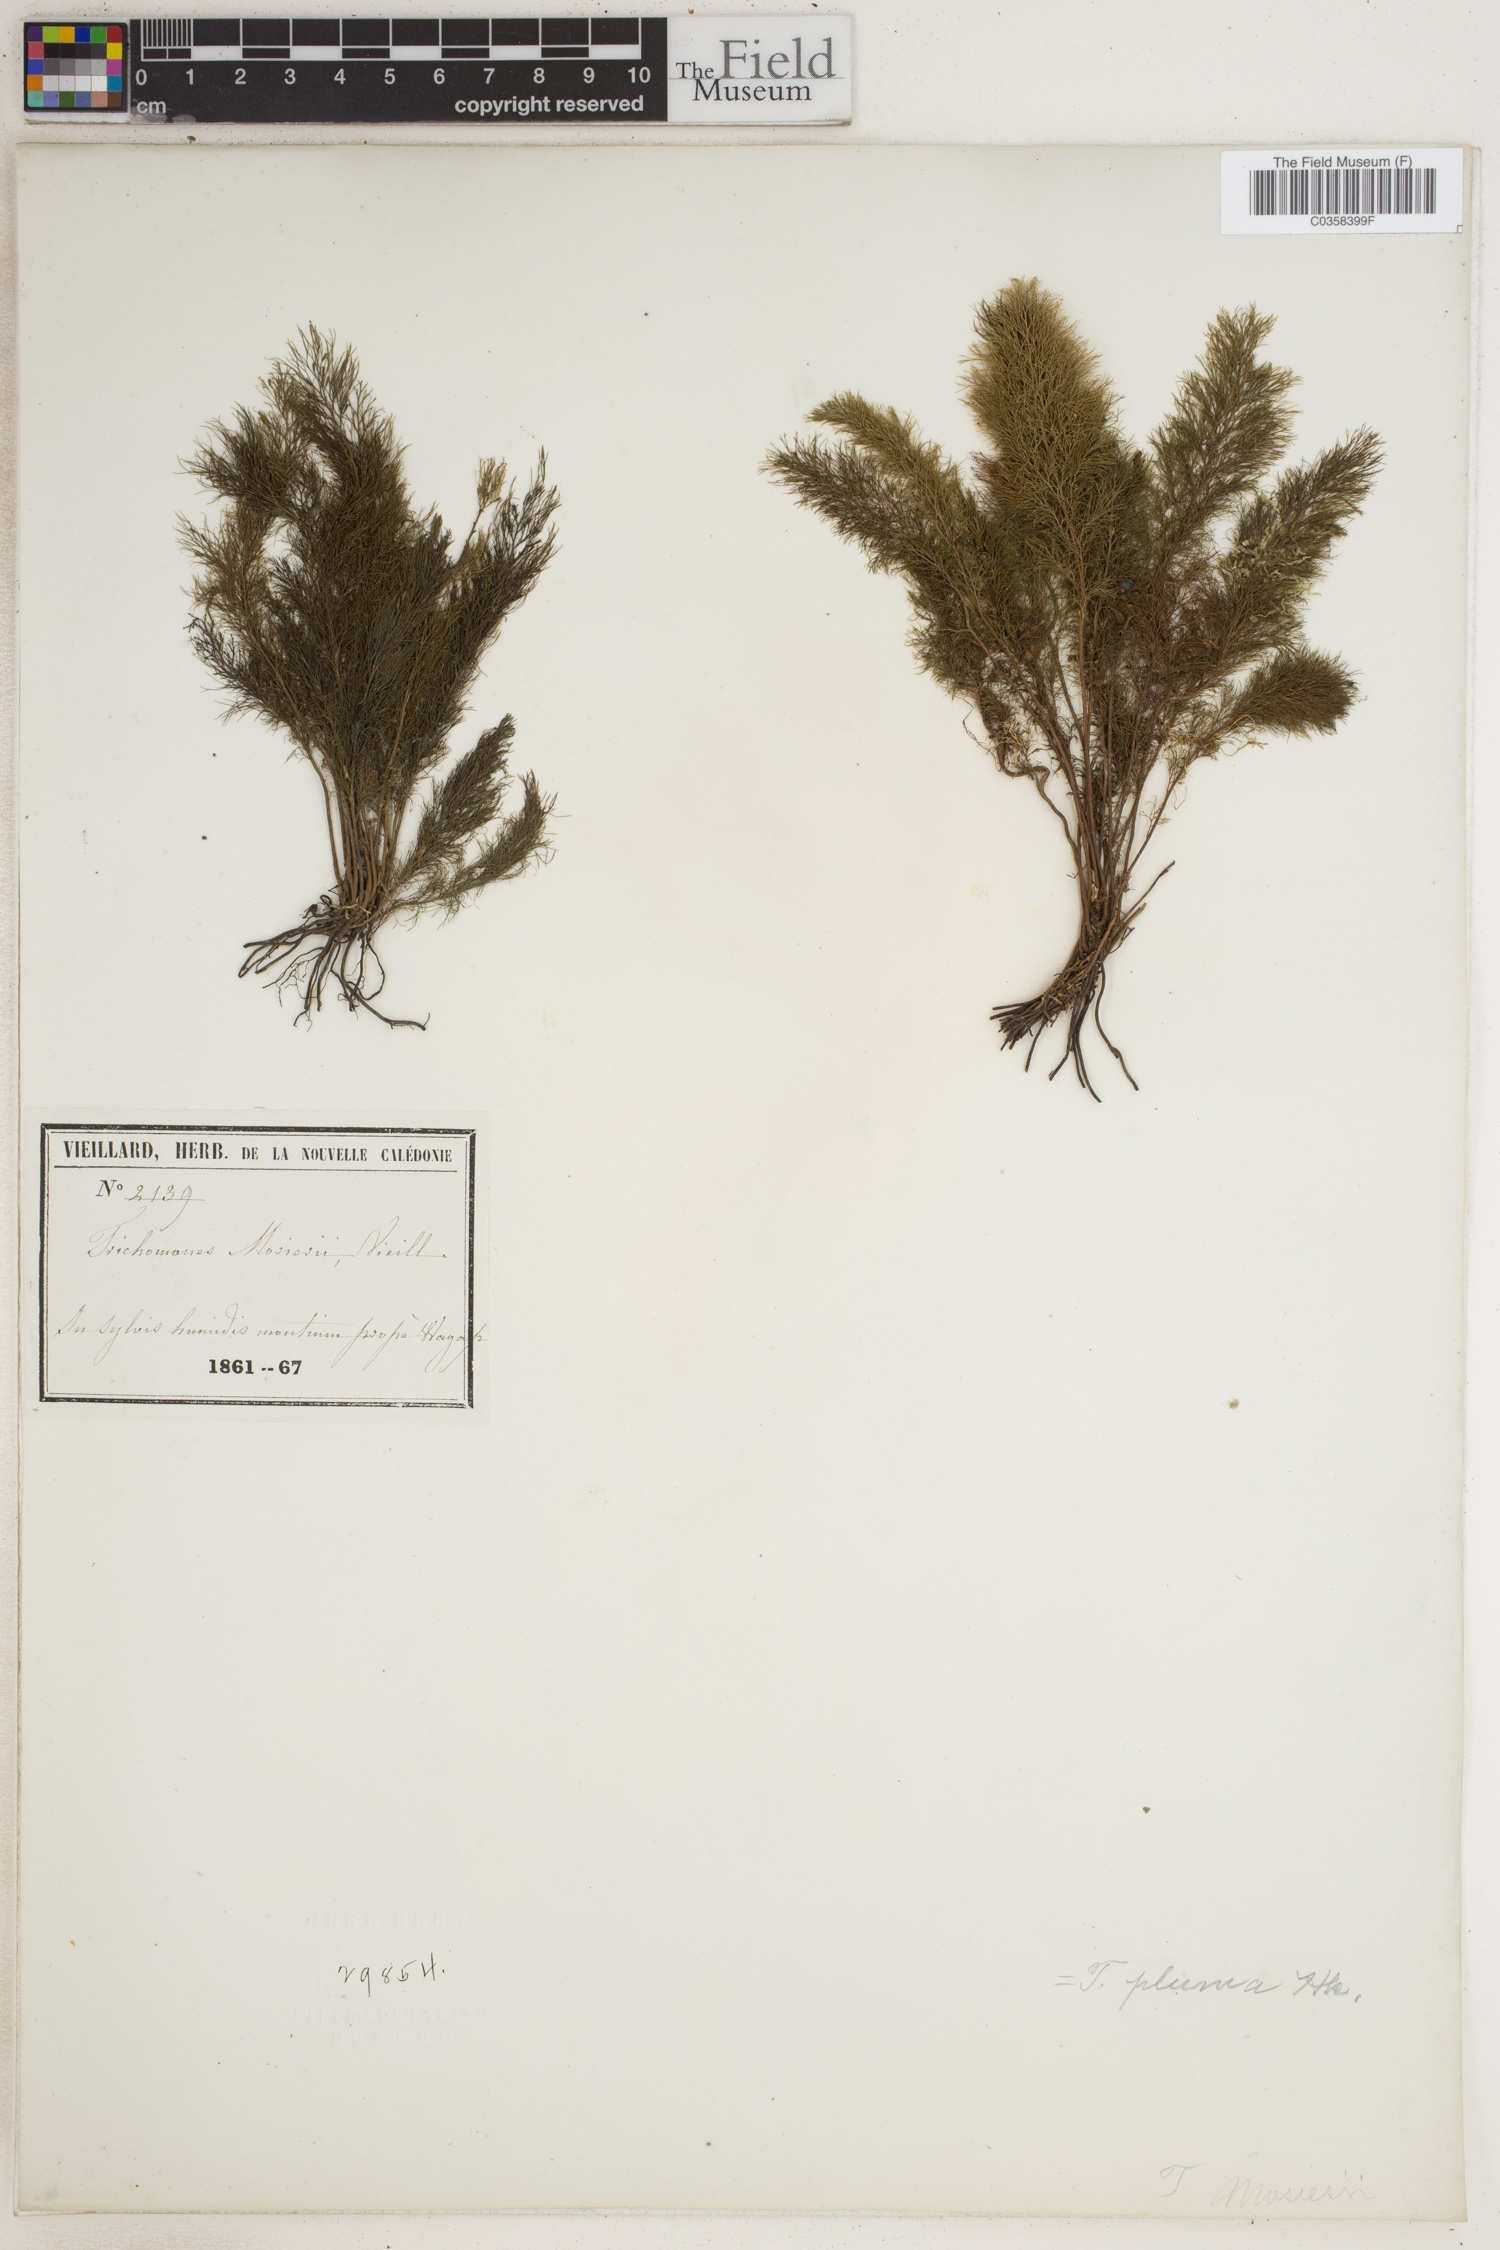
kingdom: Plantae
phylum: Tracheophyta
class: Polypodiopsida
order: Hymenophyllales
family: Hymenophyllaceae
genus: Abrodictyum
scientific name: Abrodictyum pluma
